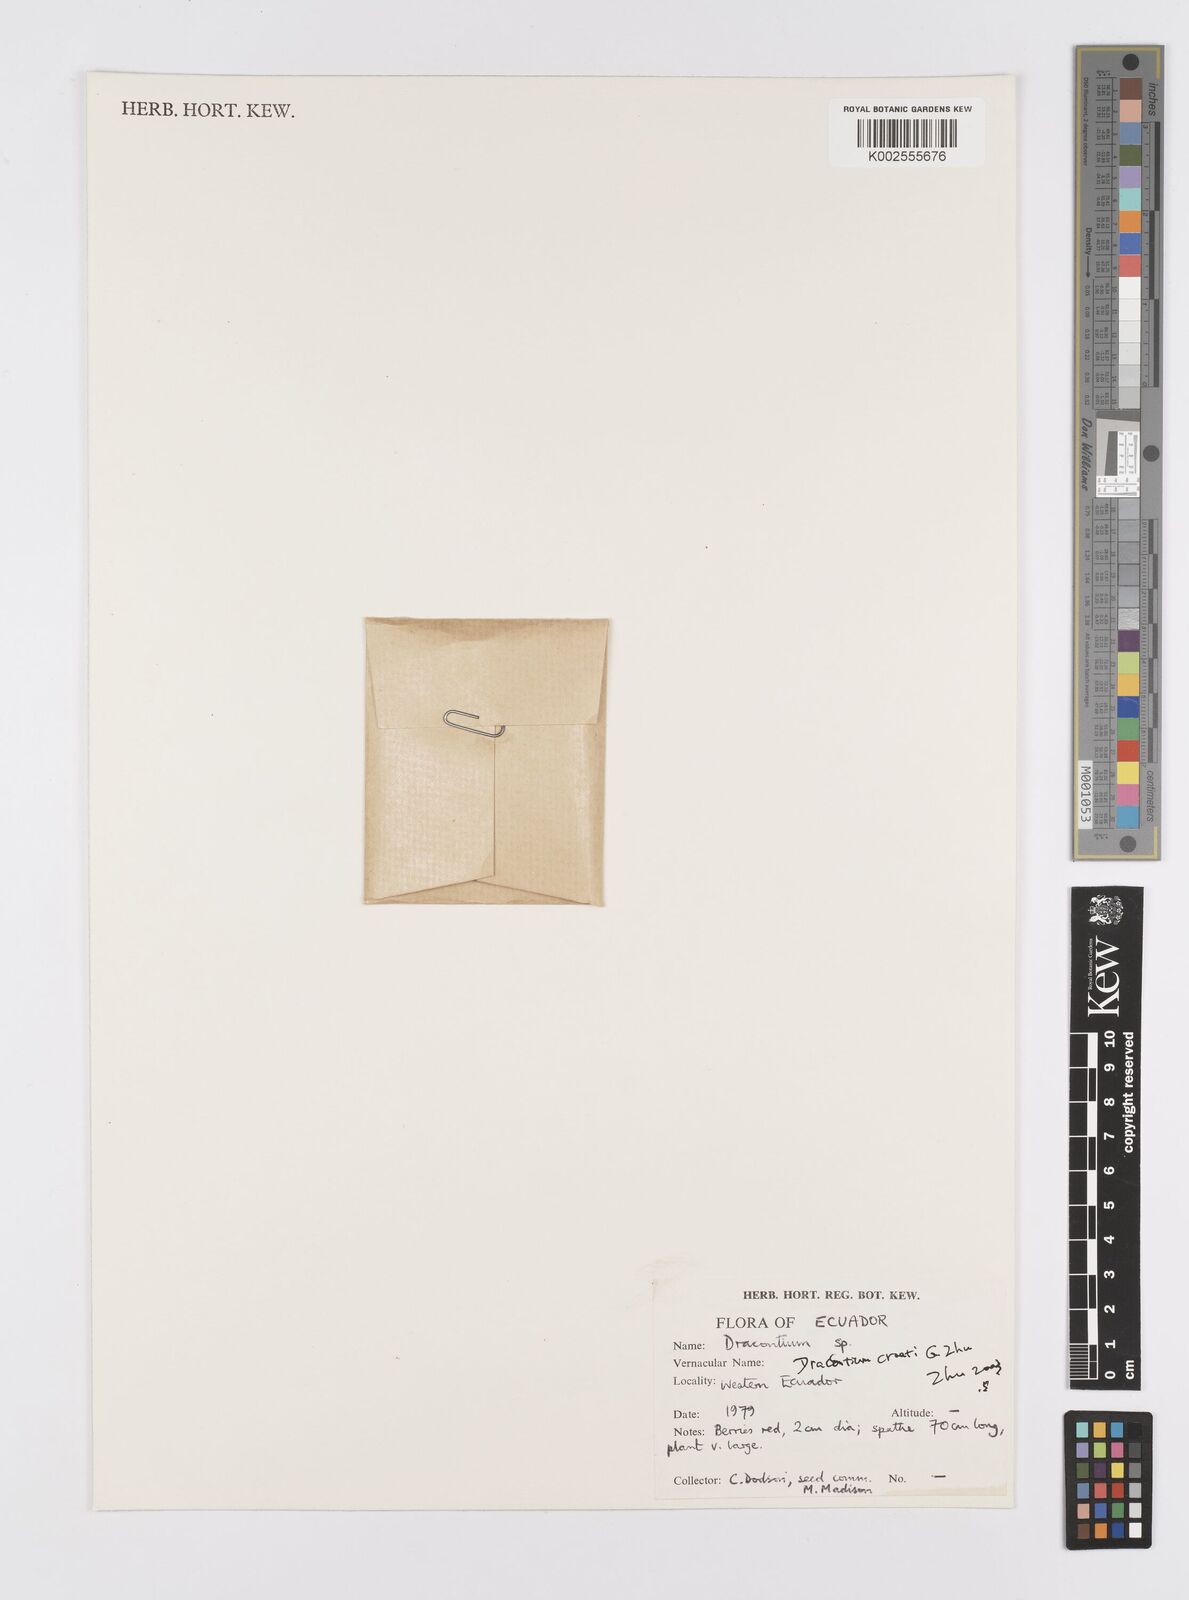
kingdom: Plantae
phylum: Tracheophyta
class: Liliopsida
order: Alismatales
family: Araceae
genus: Dracontium
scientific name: Dracontium
